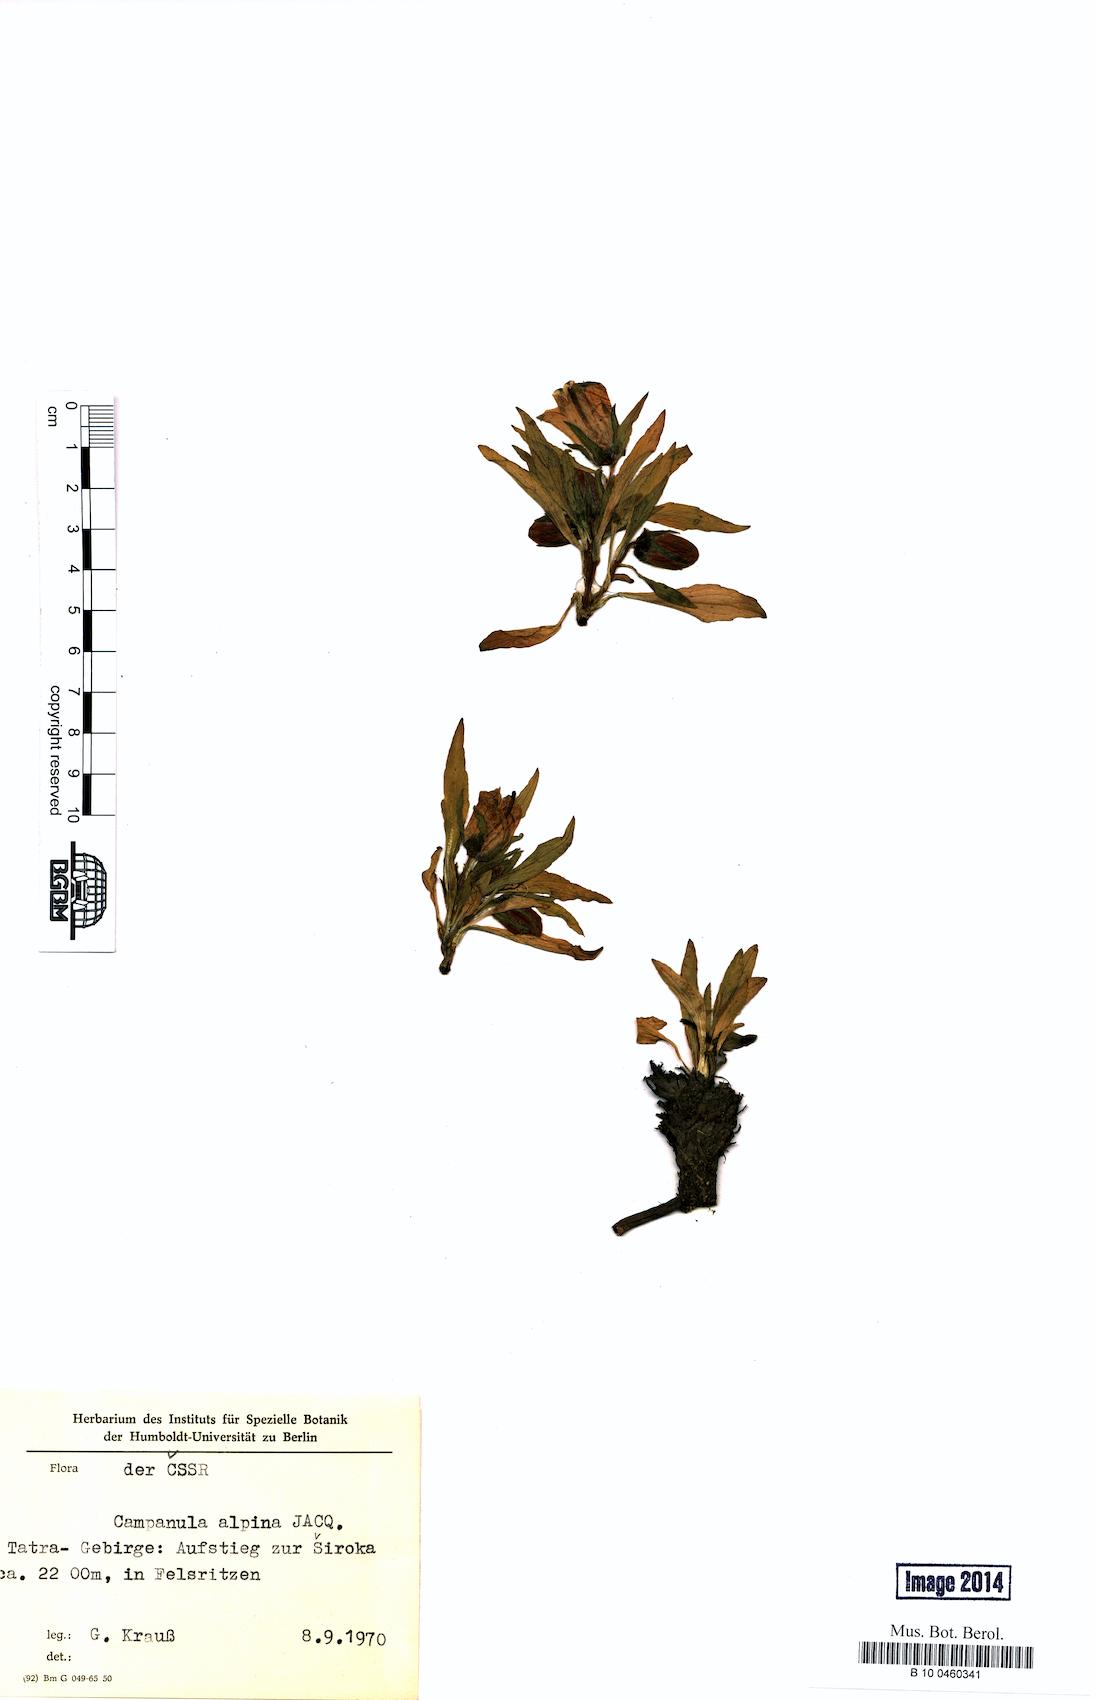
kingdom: Plantae
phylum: Tracheophyta
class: Magnoliopsida
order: Asterales
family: Campanulaceae
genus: Campanula
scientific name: Campanula alpina
